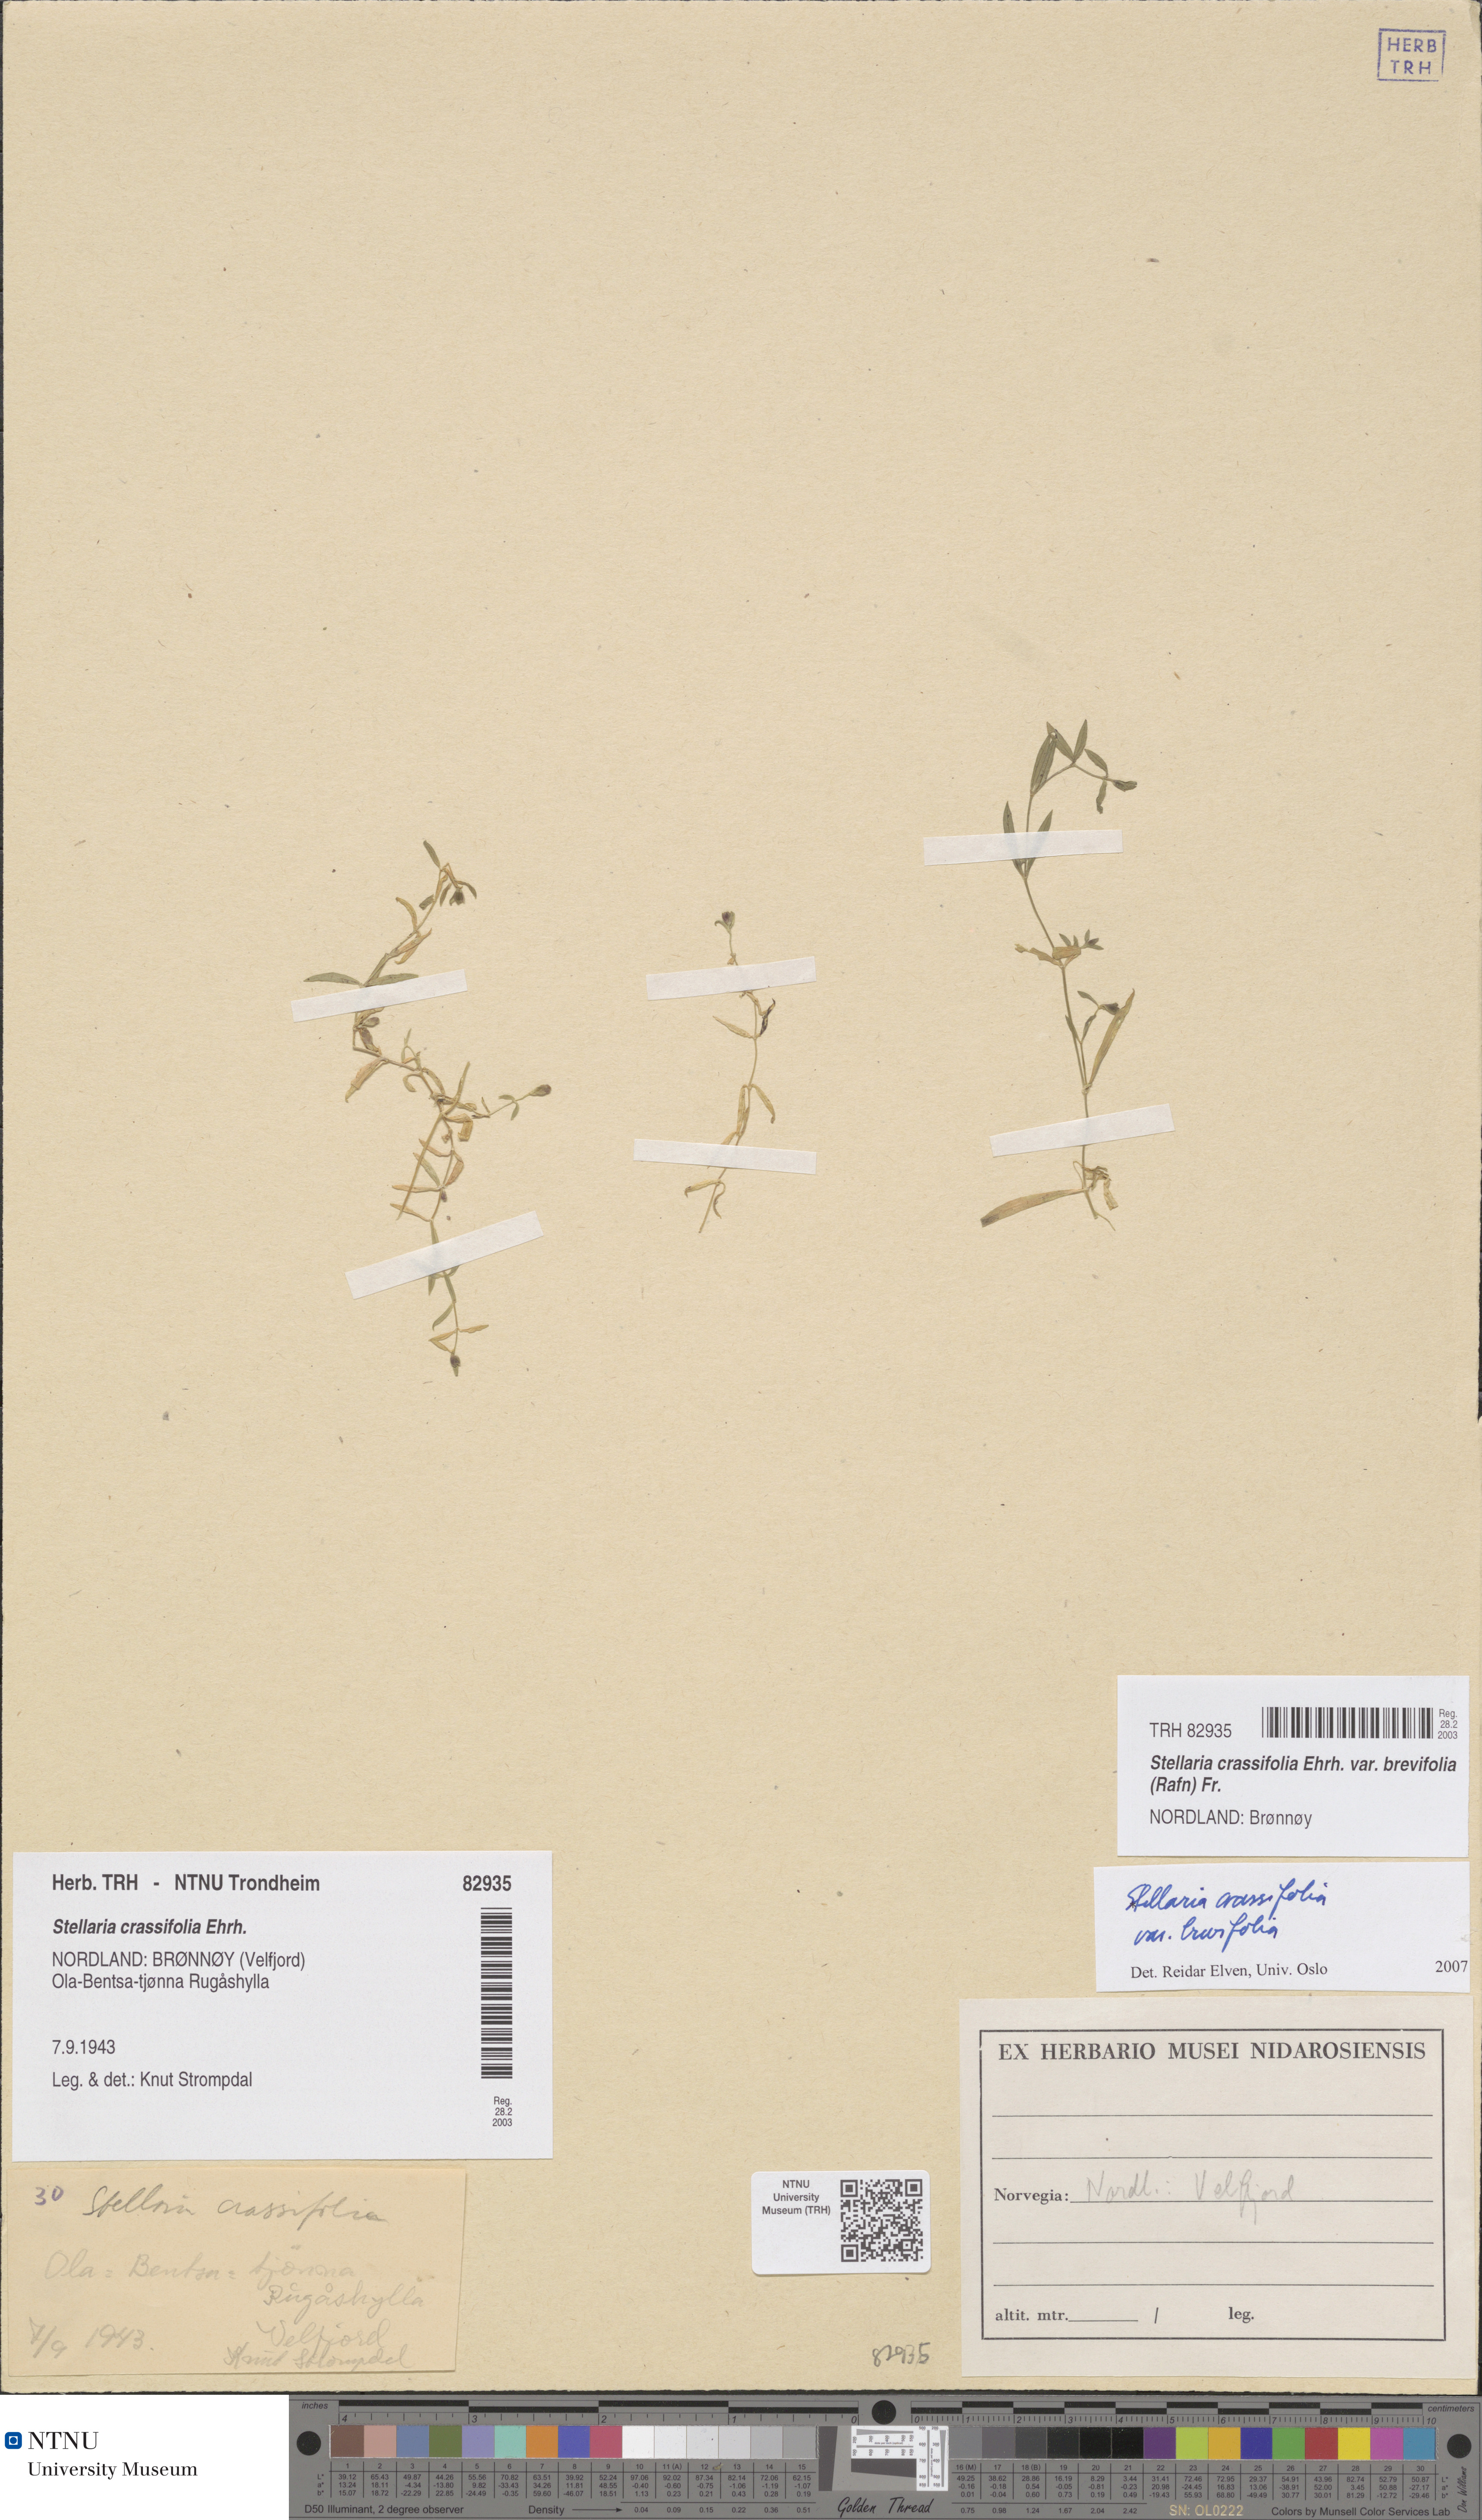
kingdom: Plantae
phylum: Tracheophyta
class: Magnoliopsida
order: Caryophyllales
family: Caryophyllaceae
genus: Stellaria
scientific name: Stellaria crassifolia
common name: Fleshy starwort
